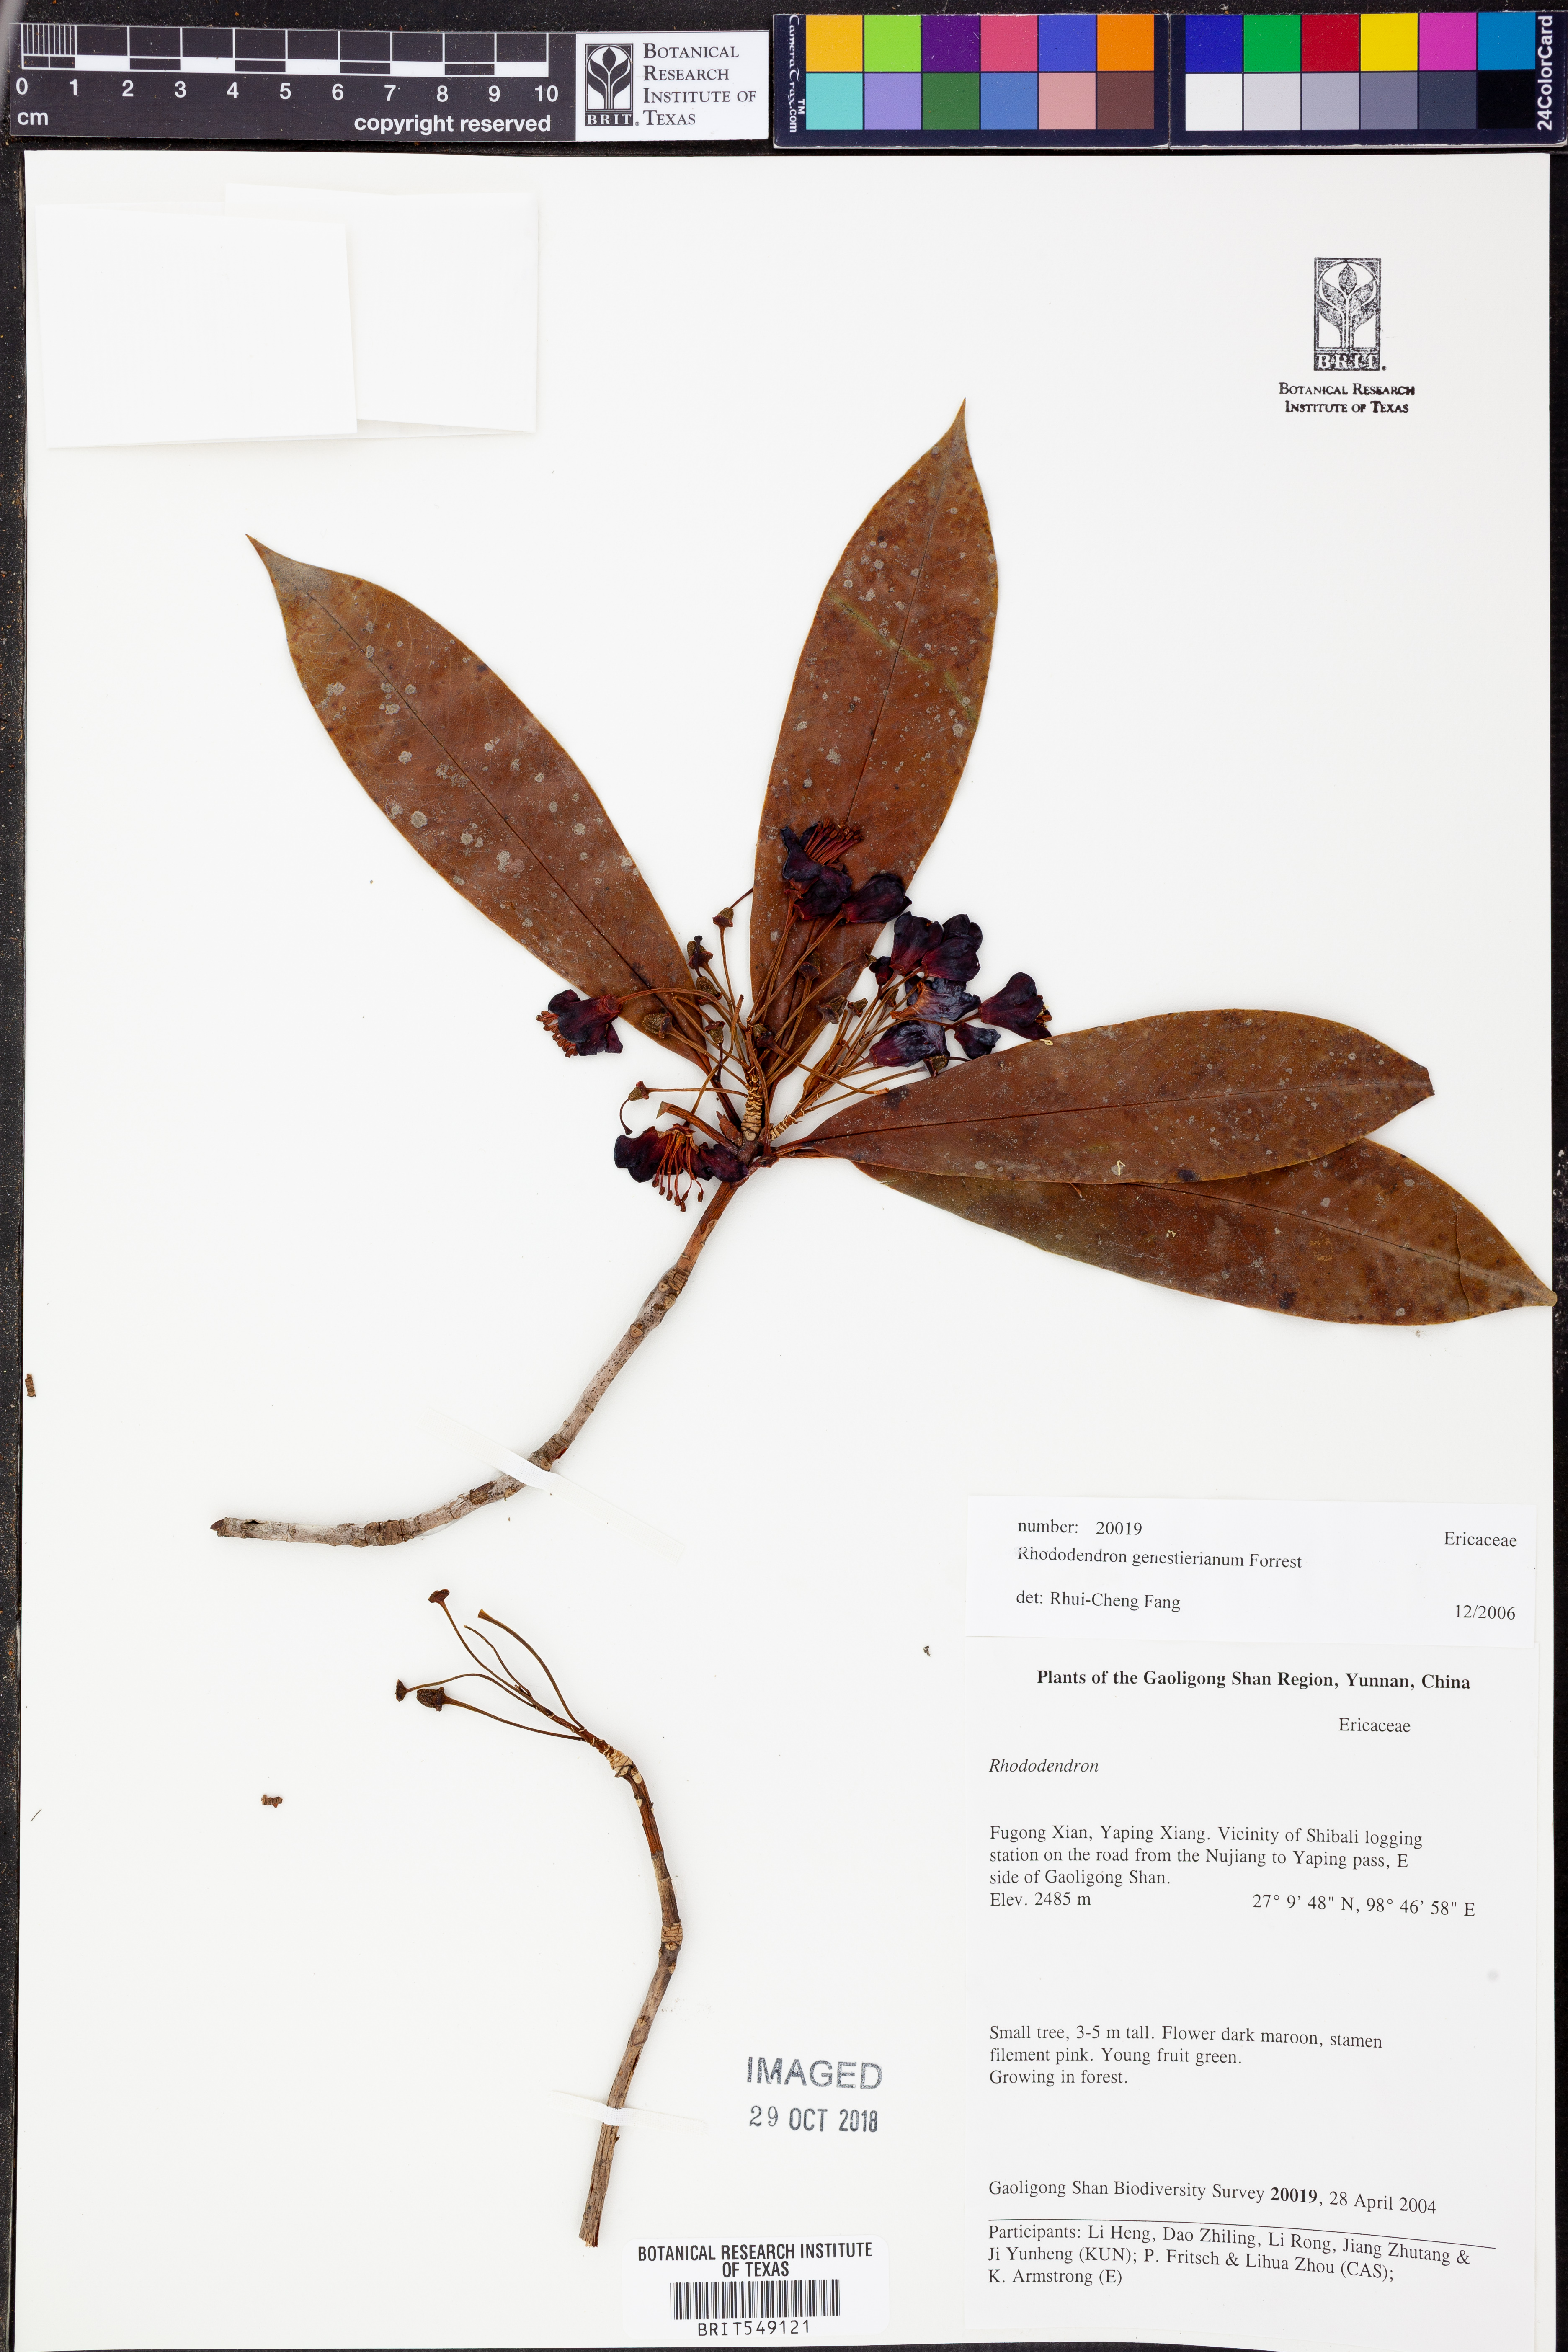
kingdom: Plantae
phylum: Tracheophyta
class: Magnoliopsida
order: Ericales
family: Ericaceae
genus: Rhododendron
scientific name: Rhododendron genestierianum
